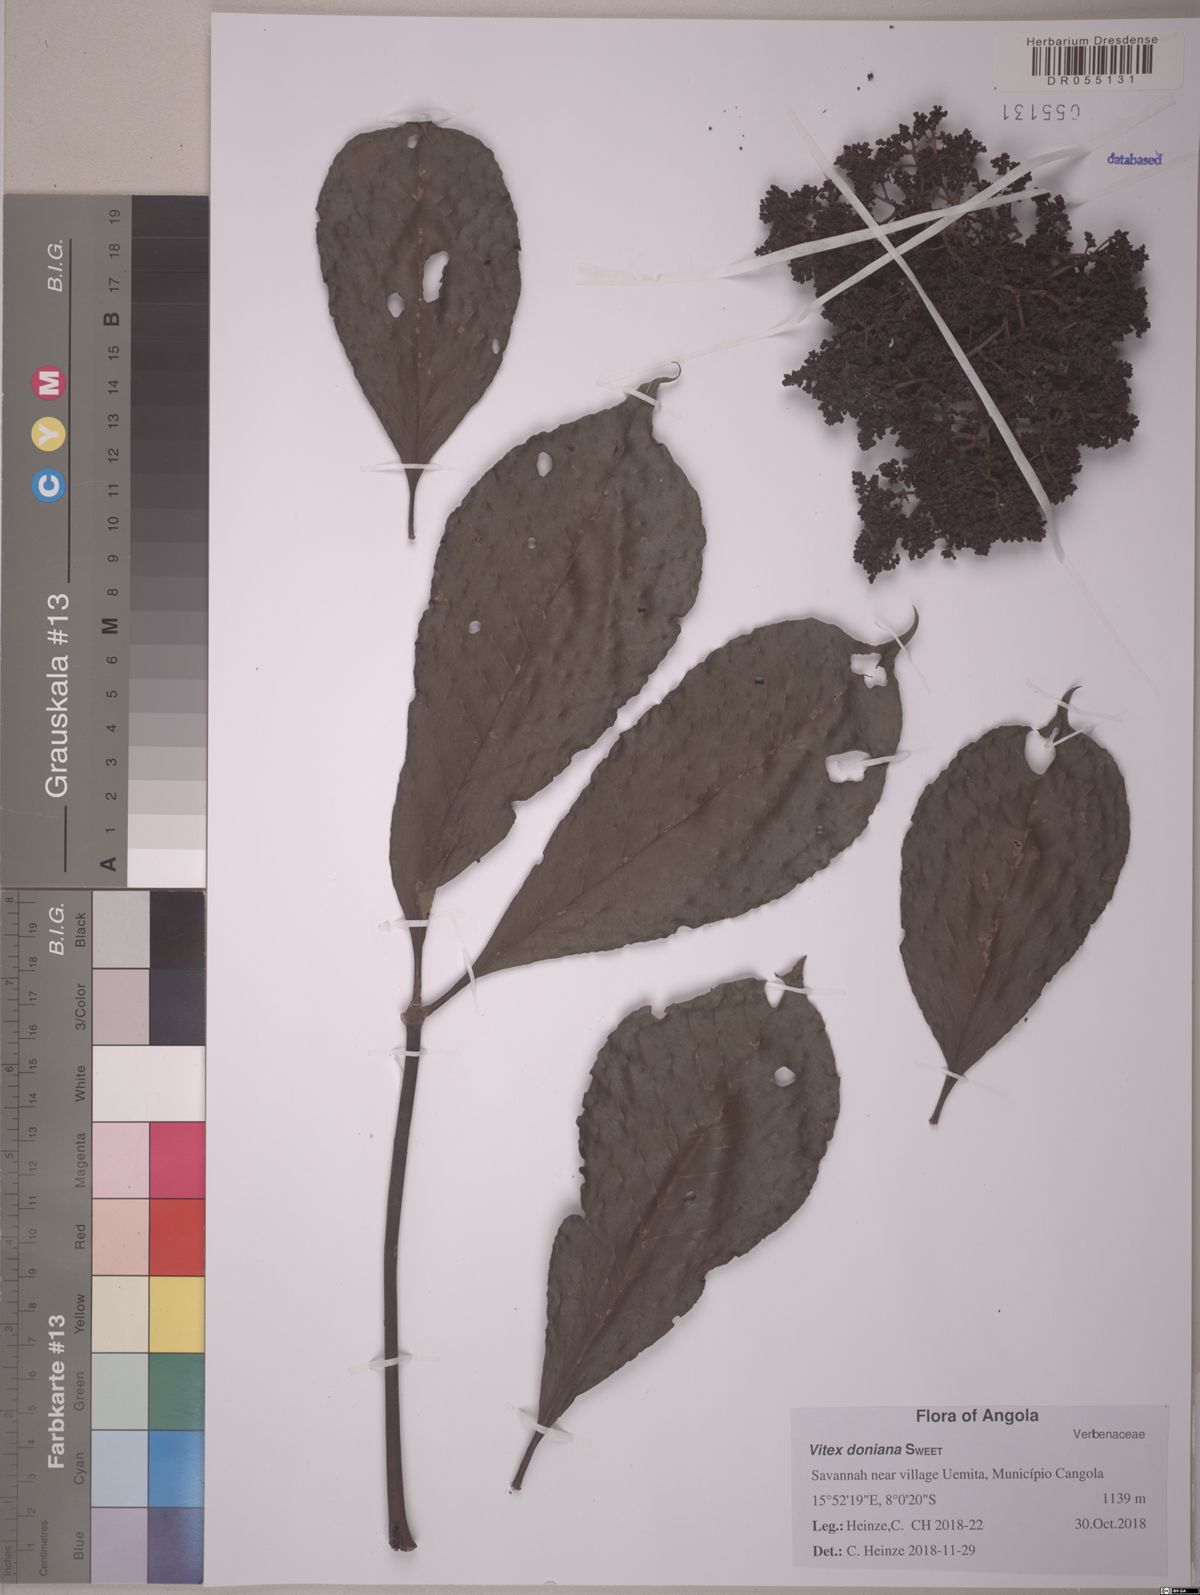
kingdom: Plantae
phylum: Tracheophyta
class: Magnoliopsida
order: Lamiales
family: Lamiaceae
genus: Vitex
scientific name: Vitex doniana
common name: Black plum
